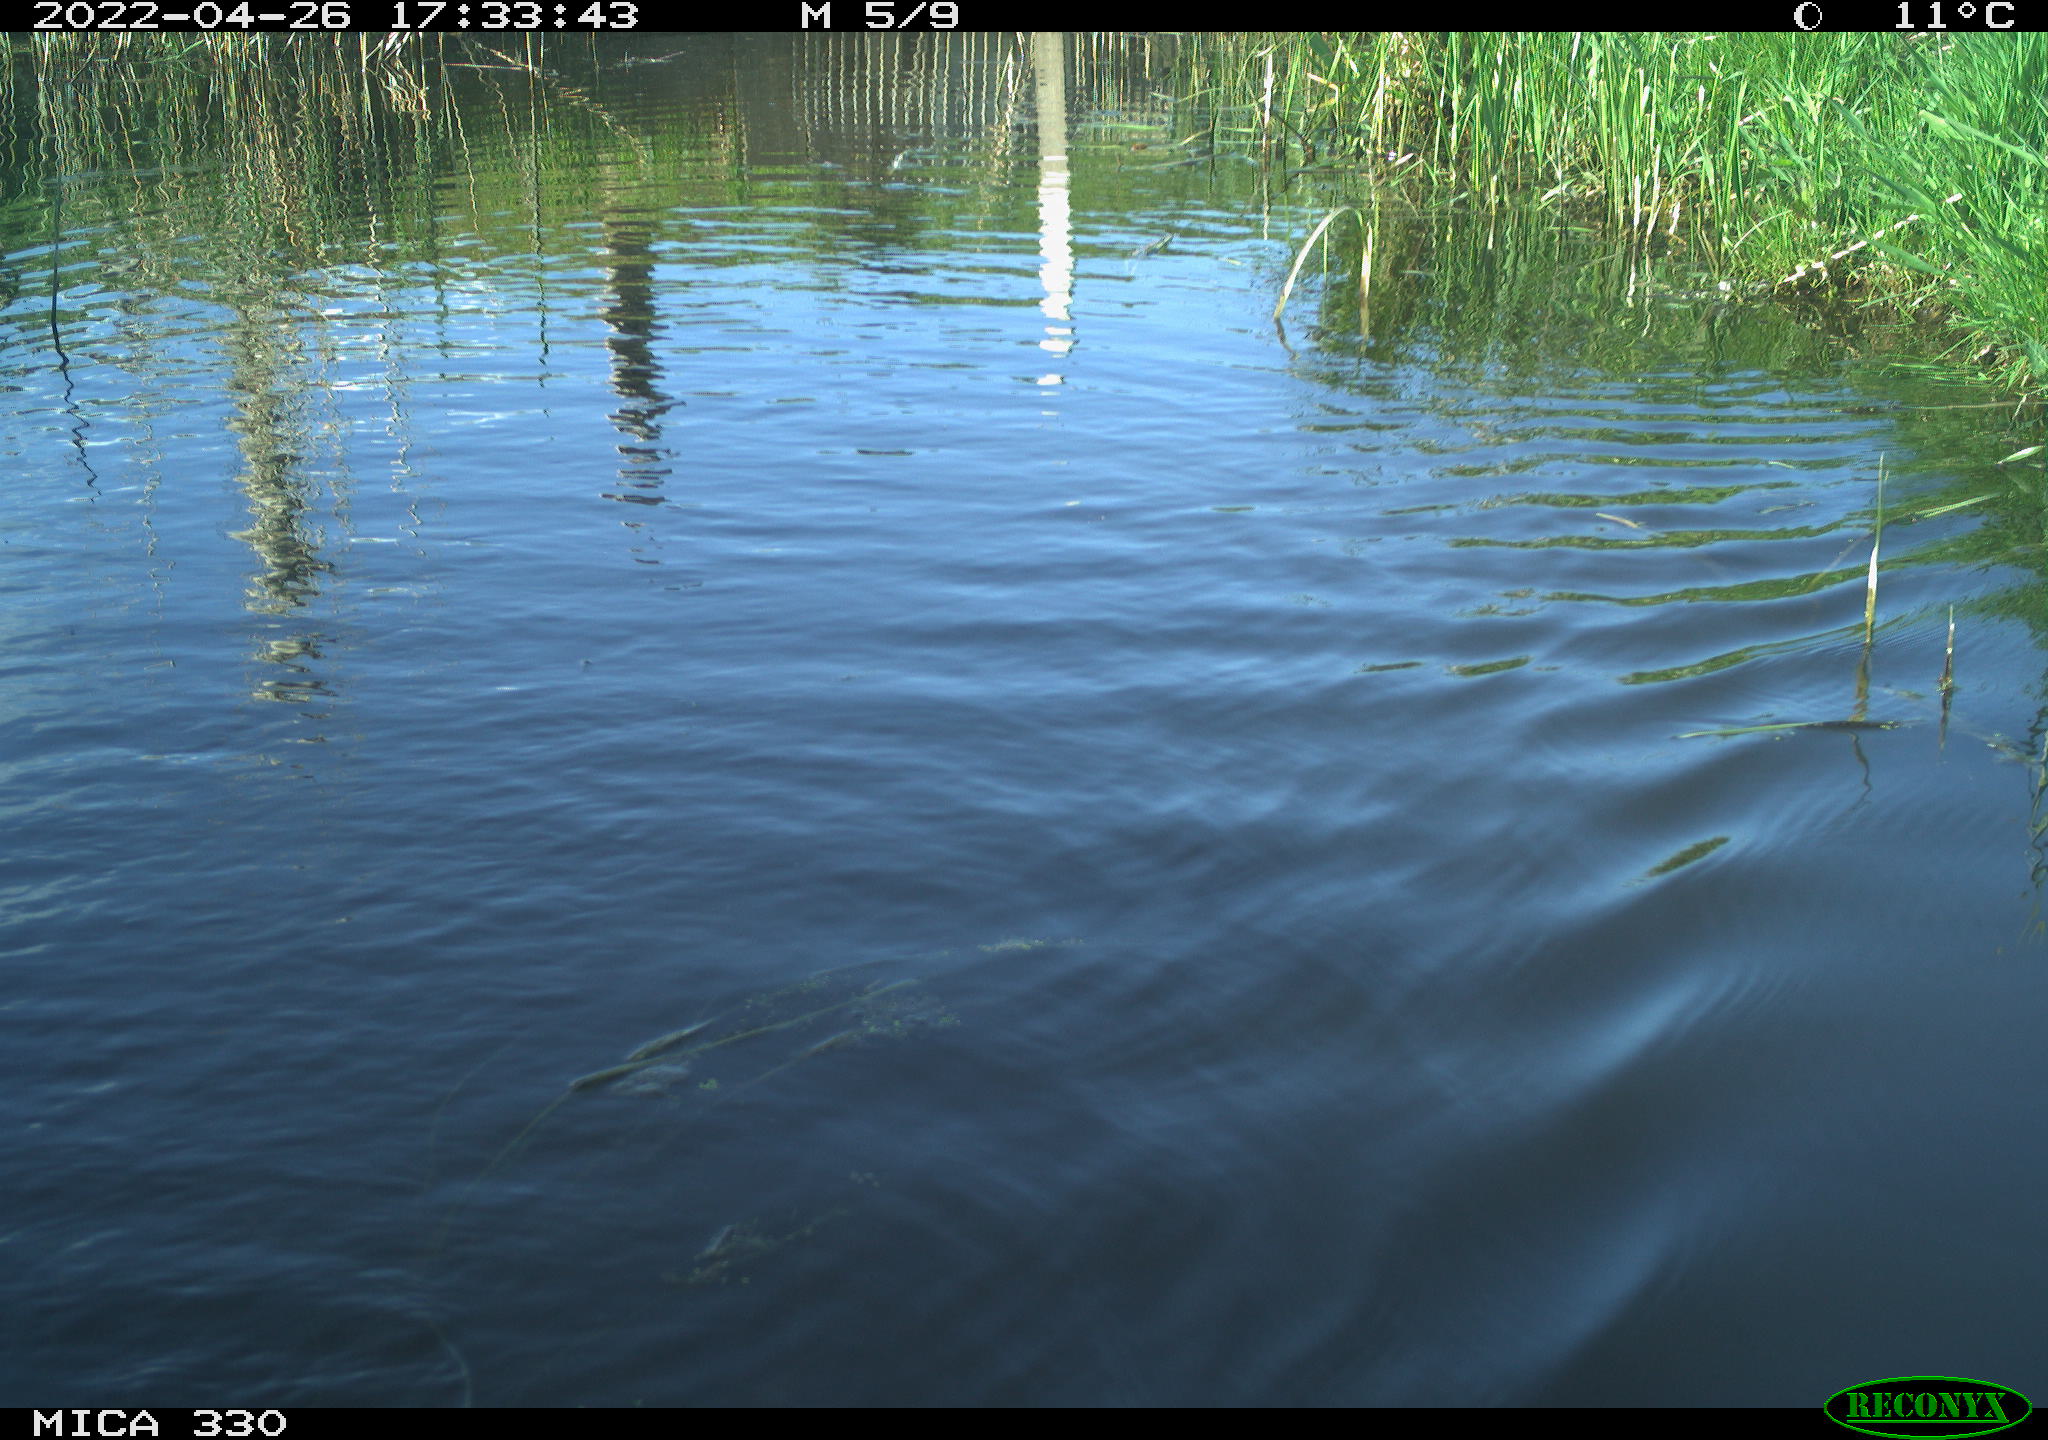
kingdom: Animalia
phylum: Chordata
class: Mammalia
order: Rodentia
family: Cricetidae
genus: Ondatra
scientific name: Ondatra zibethicus
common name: Muskrat
